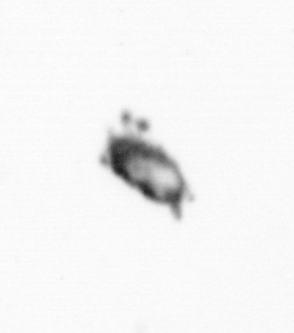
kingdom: Animalia
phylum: Arthropoda
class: Copepoda
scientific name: Copepoda
